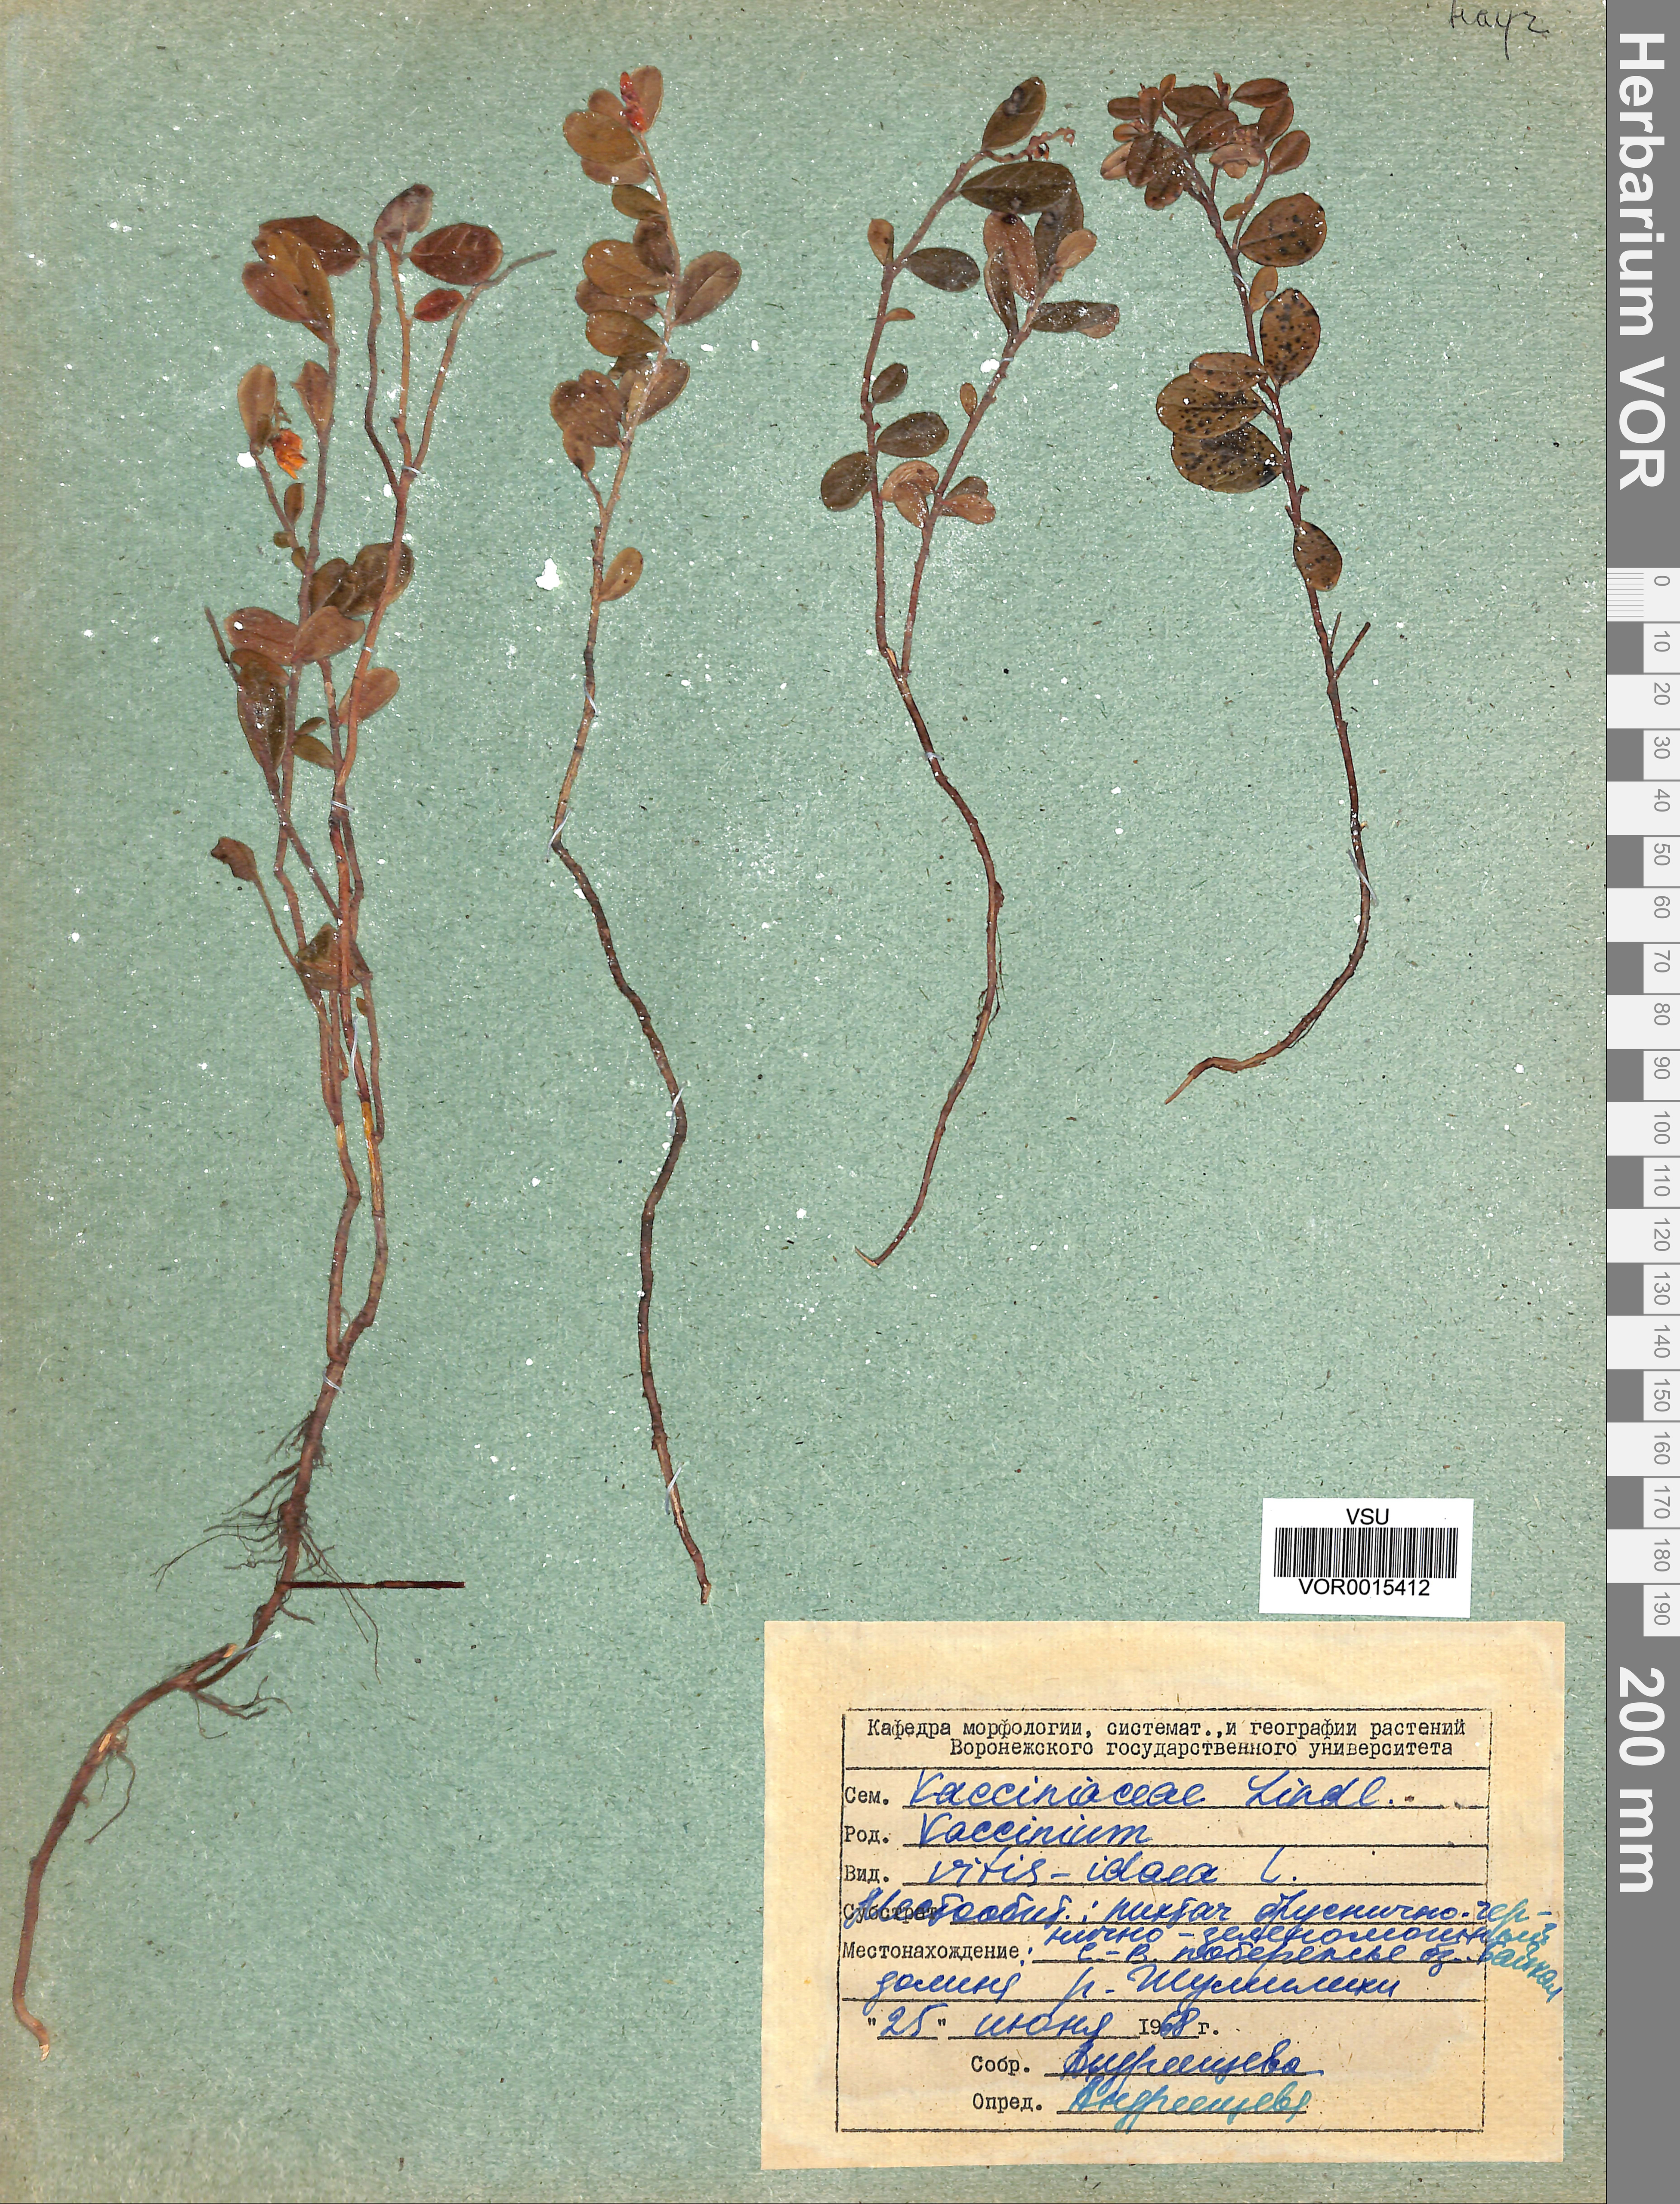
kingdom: Plantae
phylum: Tracheophyta
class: Magnoliopsida
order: Ericales
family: Ericaceae
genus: Vaccinium
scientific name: Vaccinium vitis-idaea
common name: Cowberry
